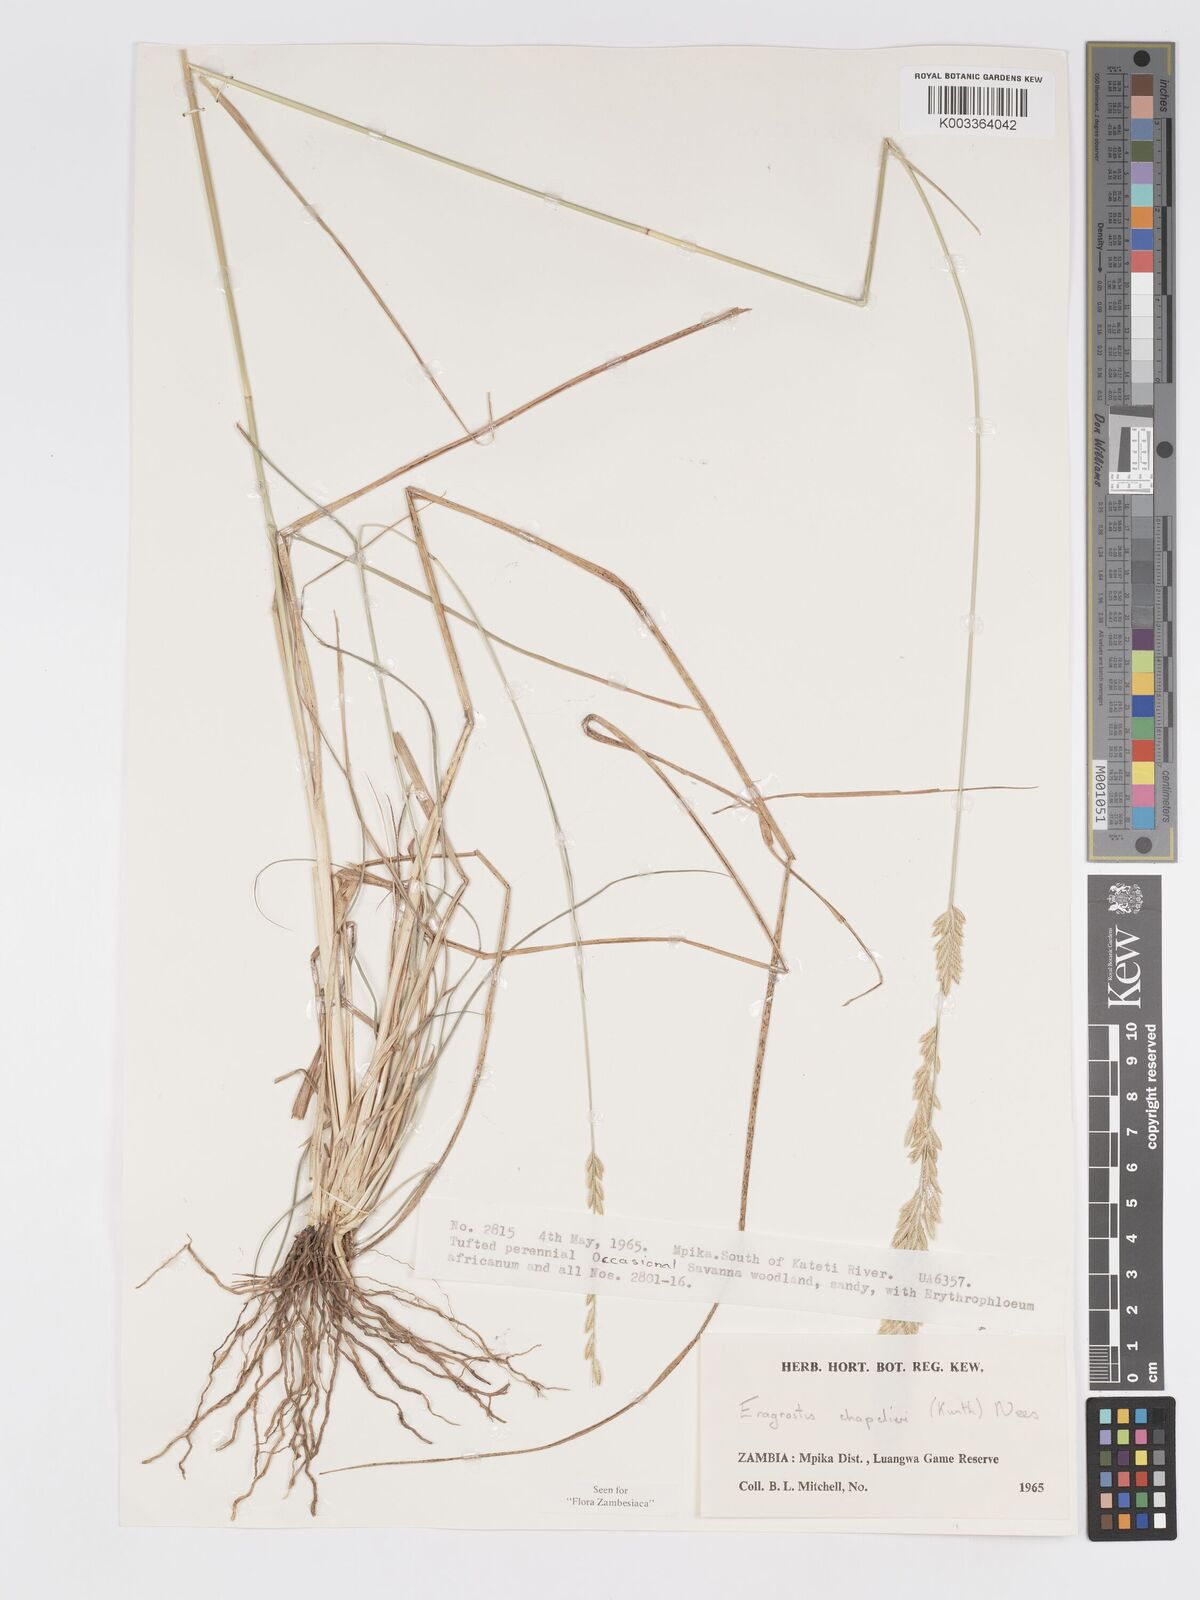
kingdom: Plantae
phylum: Tracheophyta
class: Liliopsida
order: Poales
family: Poaceae
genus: Eragrostis
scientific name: Eragrostis chapelieri
